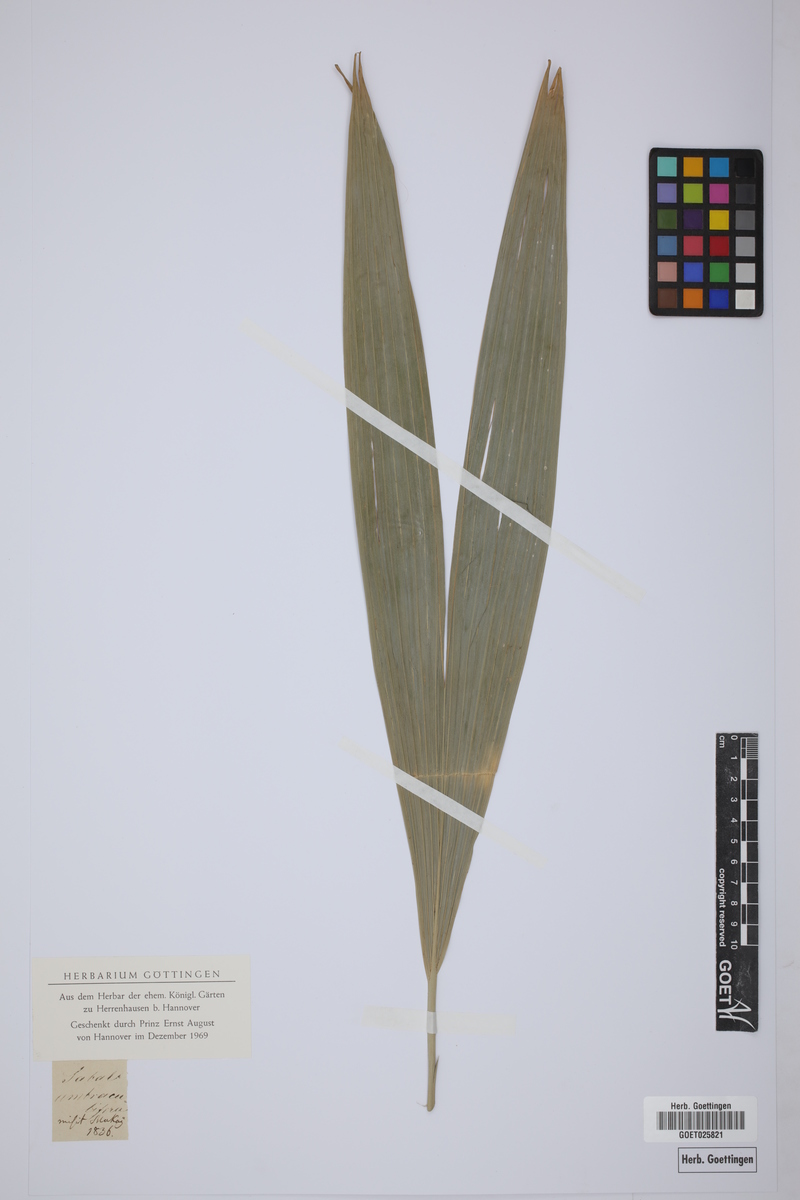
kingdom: Plantae
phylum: Tracheophyta
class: Liliopsida
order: Arecales
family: Arecaceae
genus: Sabal
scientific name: Sabal mexicana
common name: Texas palmetto
